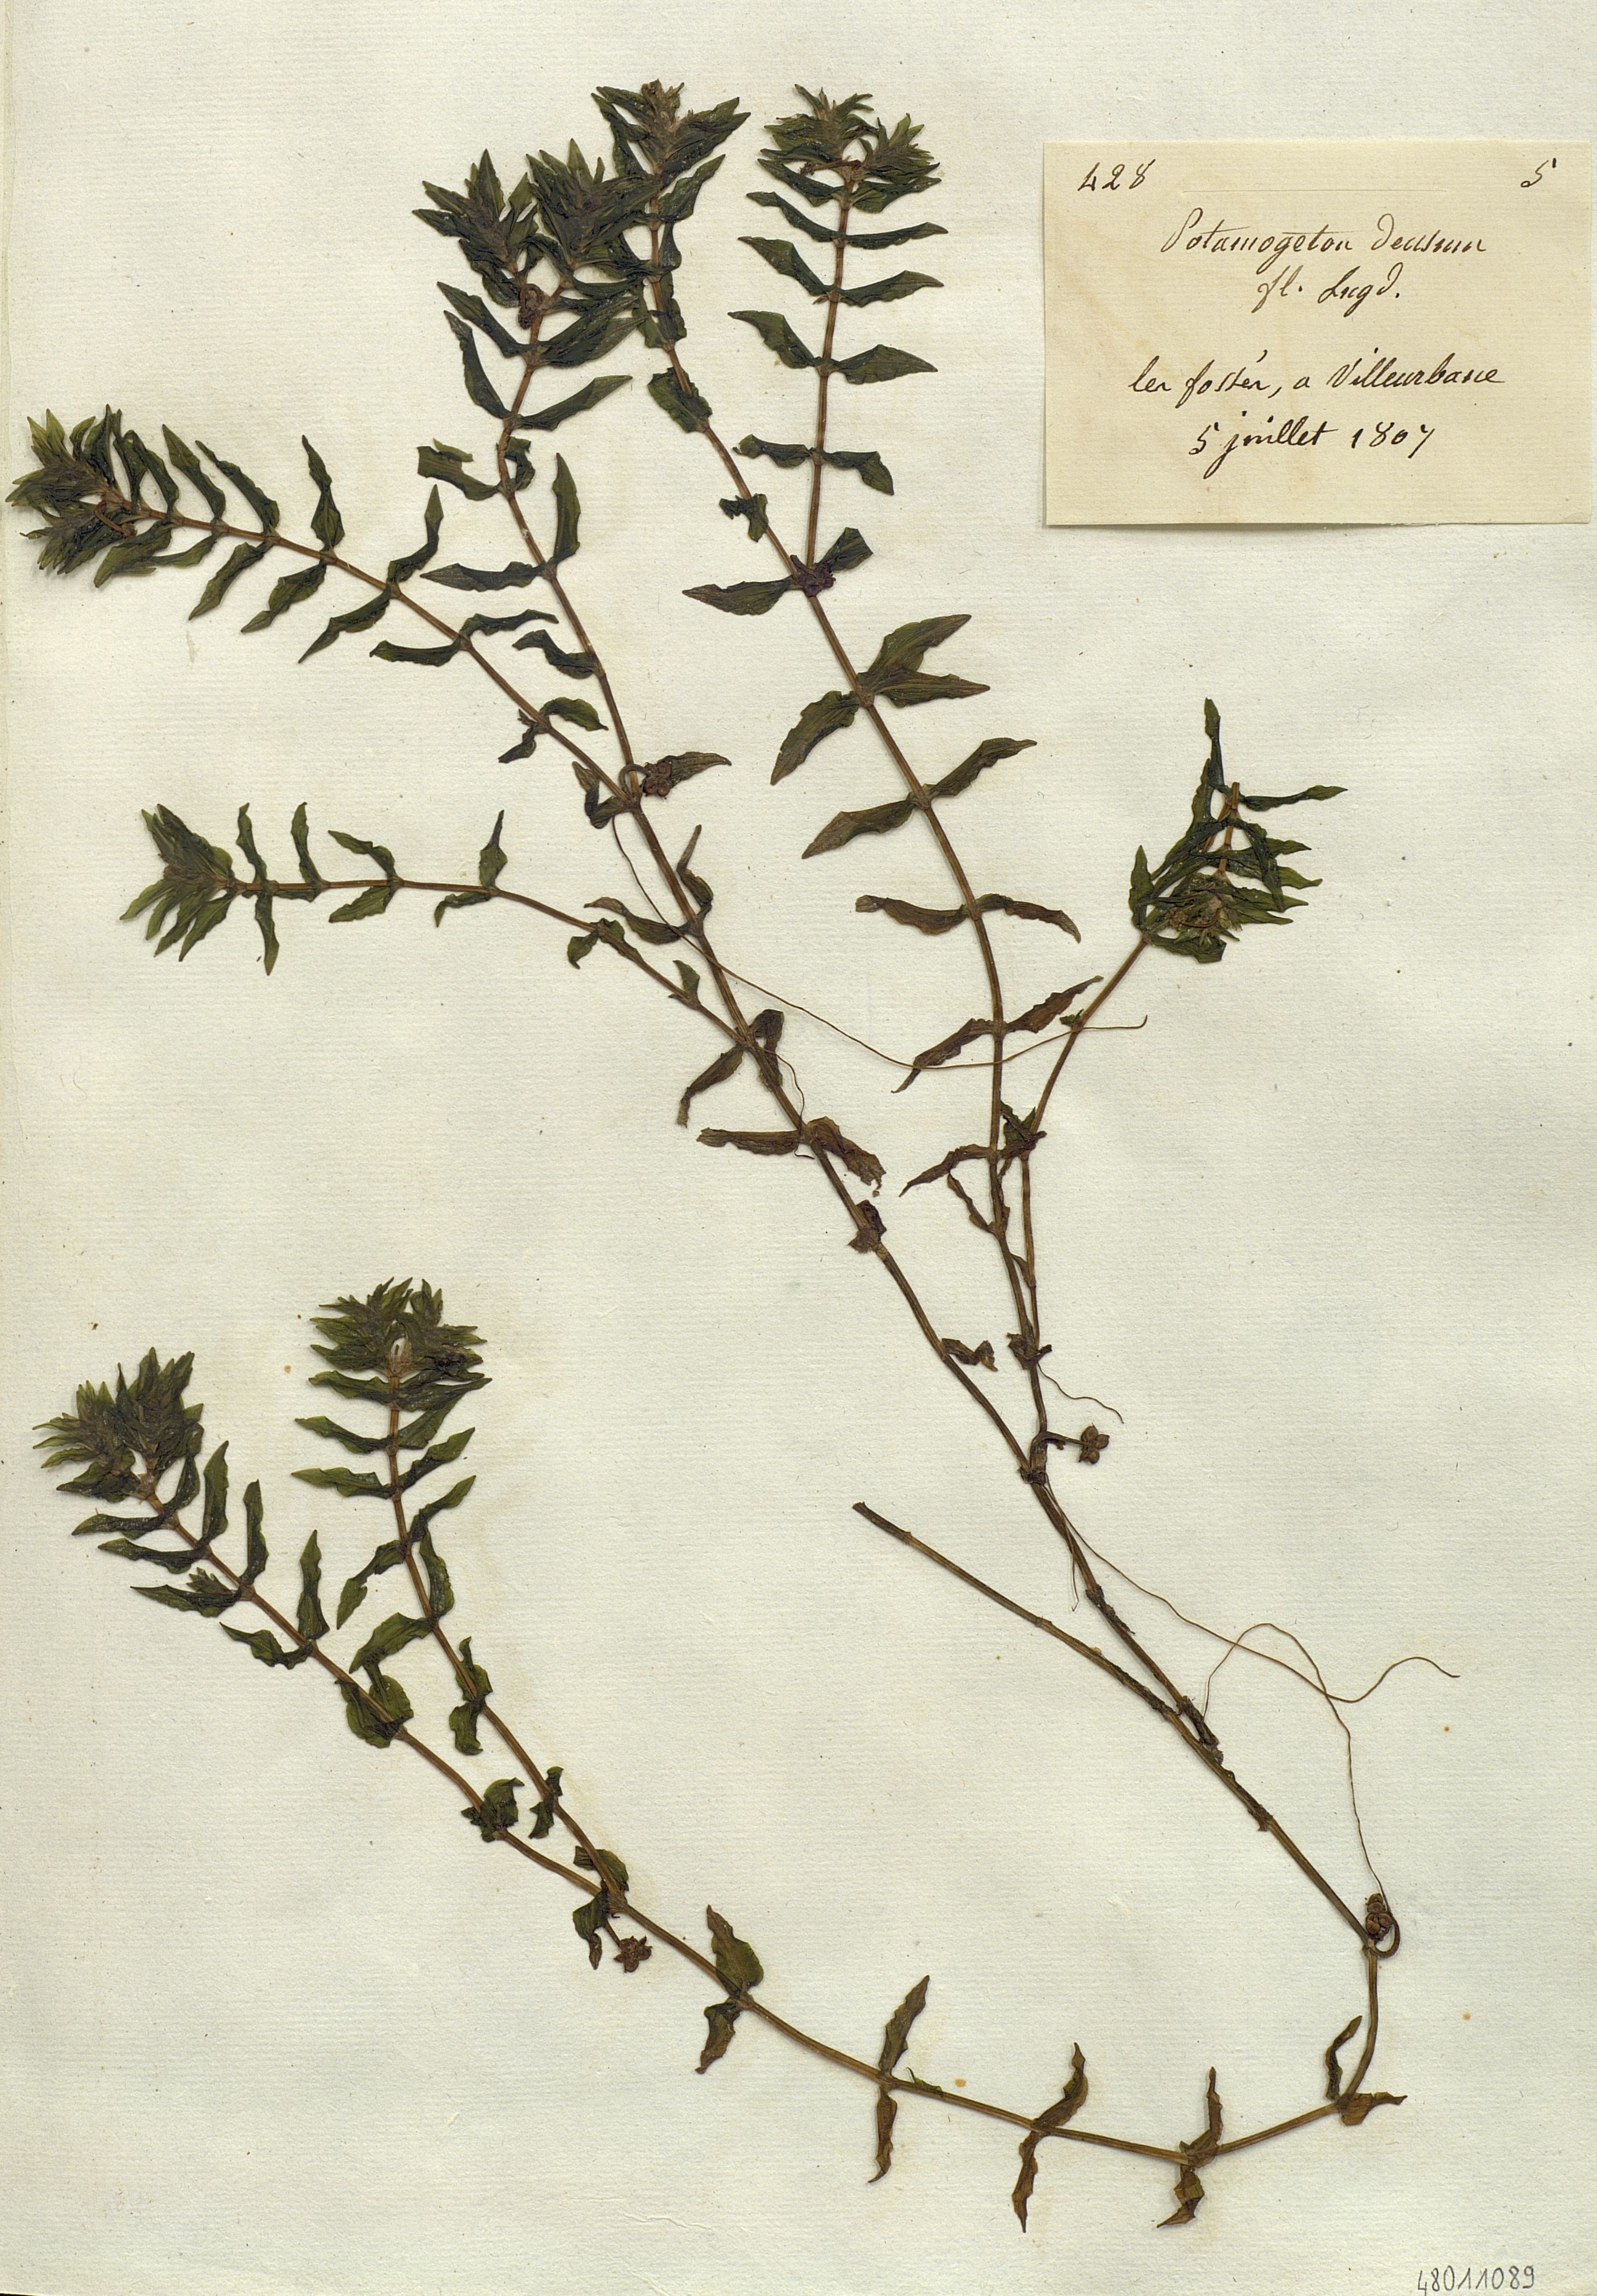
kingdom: Plantae
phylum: Tracheophyta
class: Liliopsida
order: Alismatales
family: Potamogetonaceae
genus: Potamogeton
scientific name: Potamogeton
